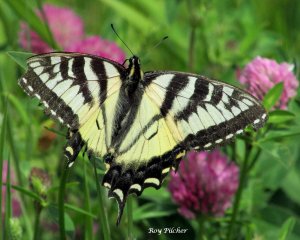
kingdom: Animalia
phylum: Arthropoda
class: Insecta
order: Lepidoptera
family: Papilionidae
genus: Pterourus
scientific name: Pterourus canadensis
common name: Canadian Tiger Swallowtail
